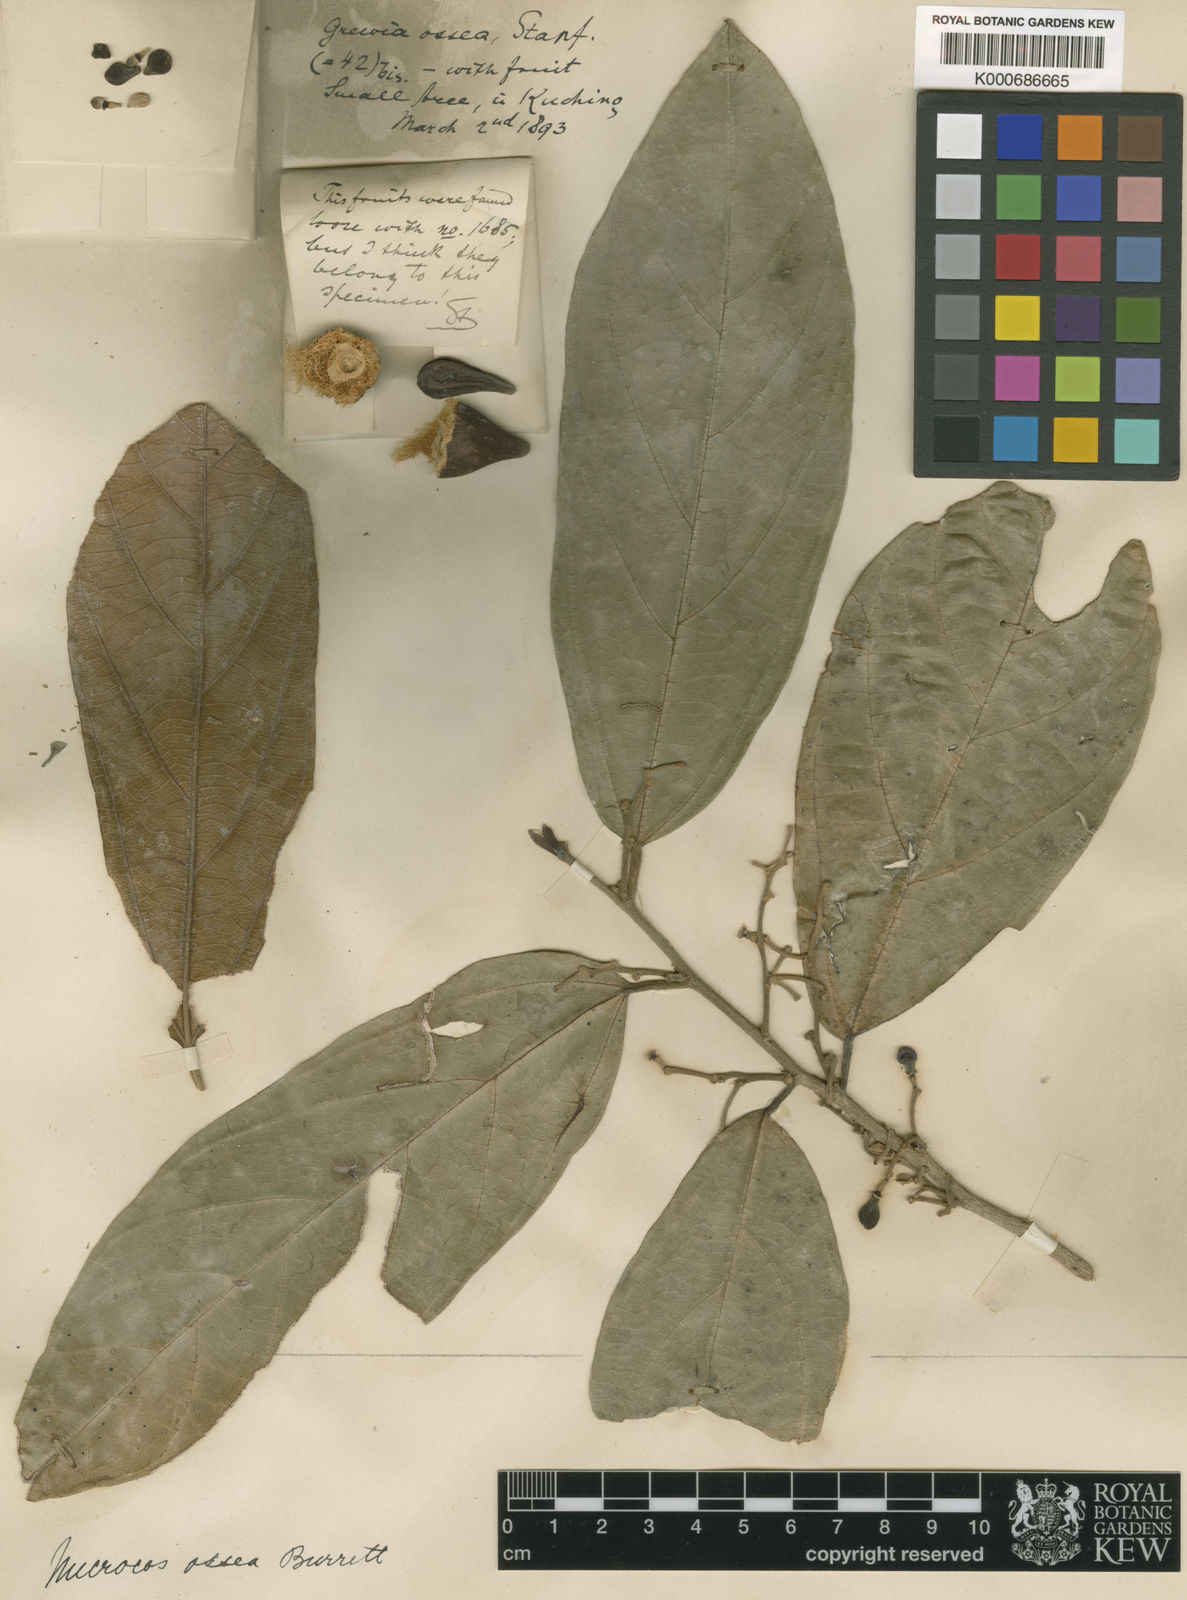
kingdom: Plantae
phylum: Tracheophyta
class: Magnoliopsida
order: Malvales
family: Malvaceae
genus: Microcos
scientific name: Microcos ossea
